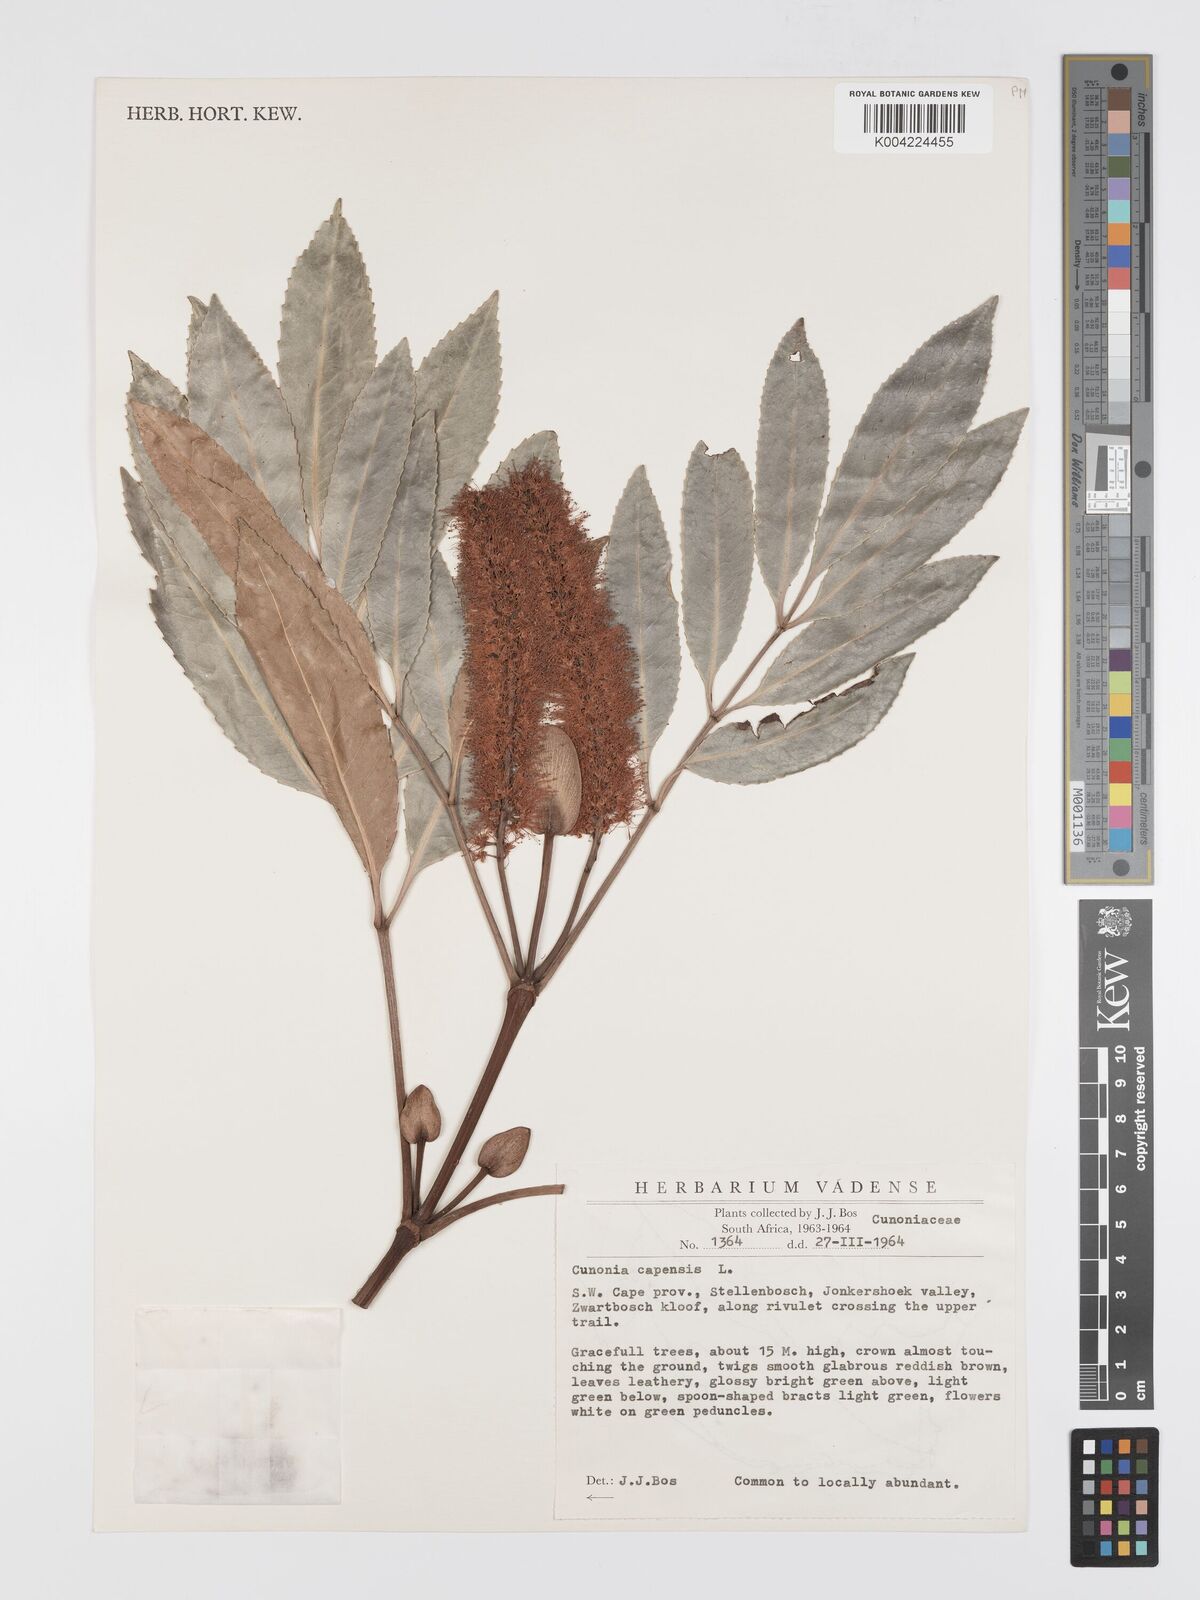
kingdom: Plantae
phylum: Tracheophyta
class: Magnoliopsida
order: Oxalidales
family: Cunoniaceae
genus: Cunonia
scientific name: Cunonia capensis
